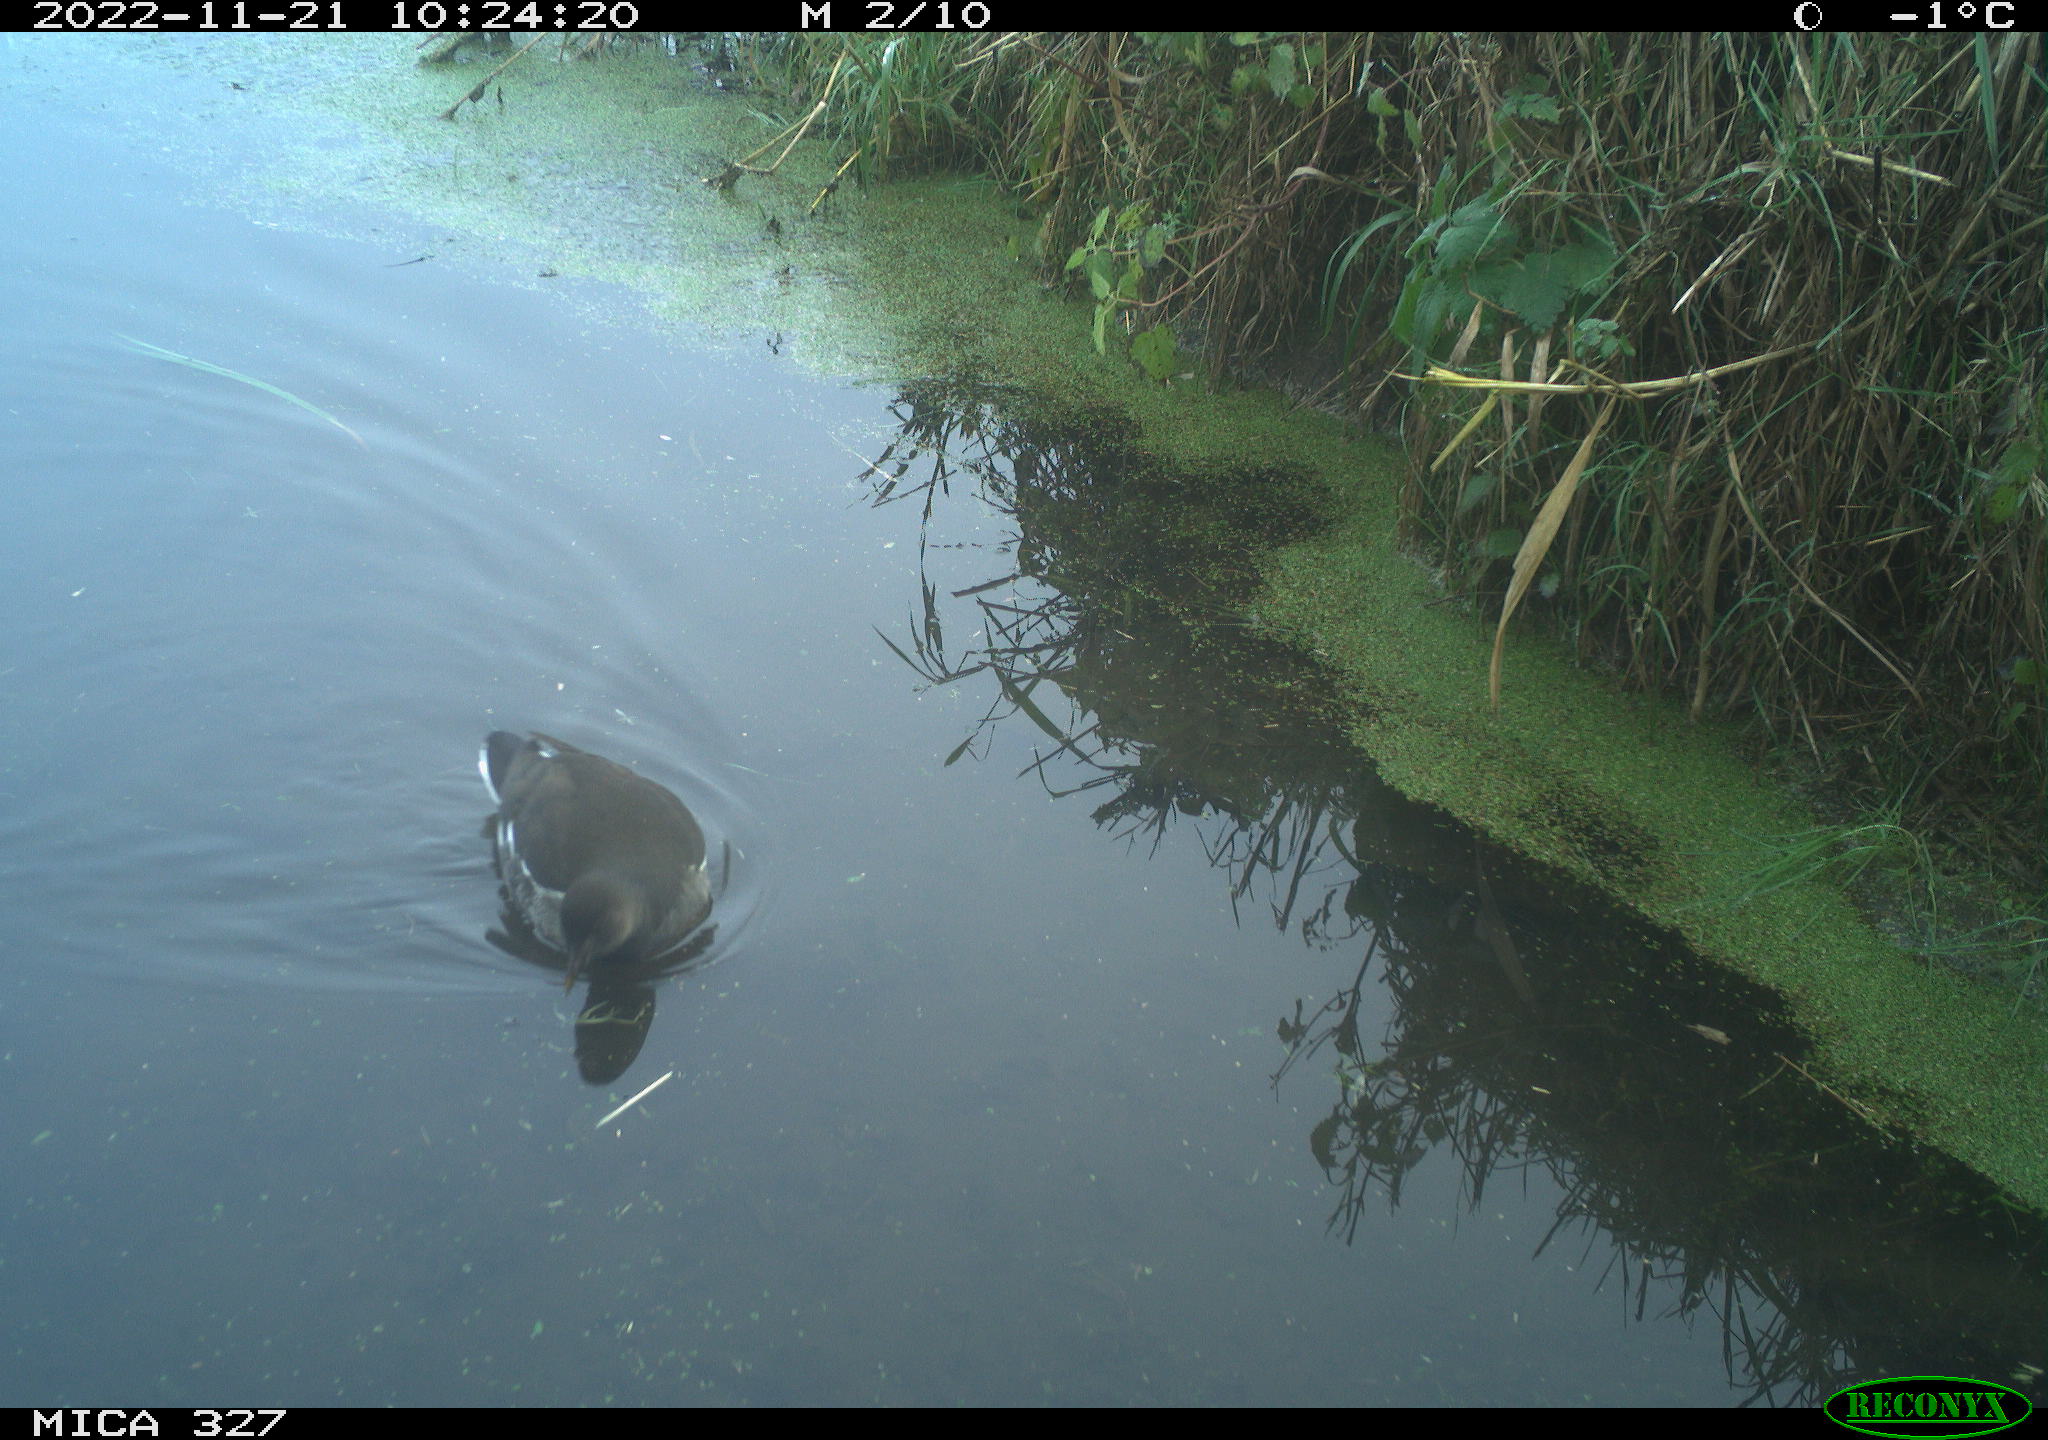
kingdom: Animalia
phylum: Chordata
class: Aves
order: Gruiformes
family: Rallidae
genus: Gallinula
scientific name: Gallinula chloropus
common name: Common moorhen
